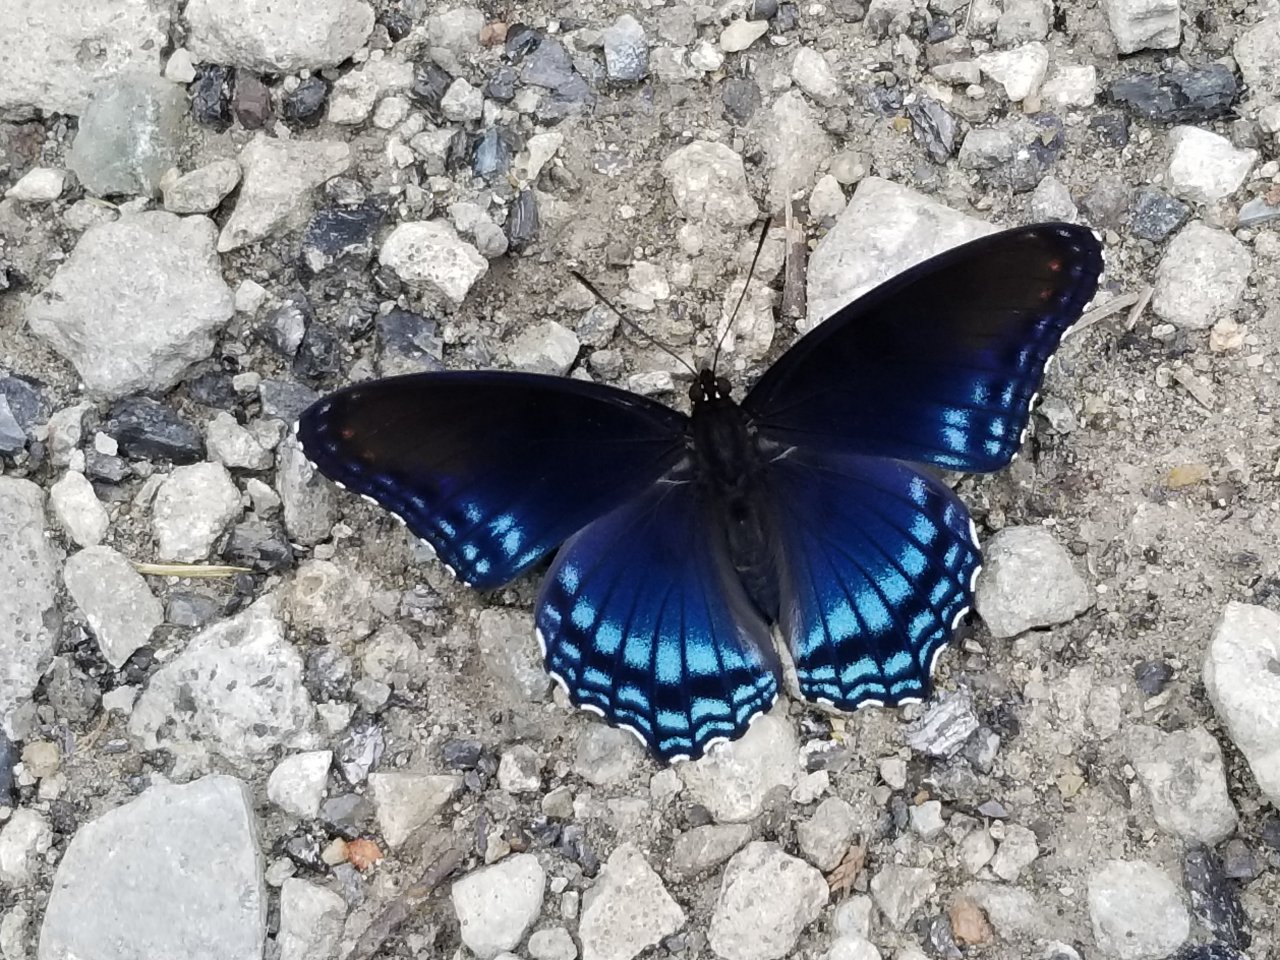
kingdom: Animalia
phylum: Arthropoda
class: Insecta
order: Lepidoptera
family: Nymphalidae
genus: Limenitis
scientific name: Limenitis arthemis
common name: Red-spotted Admiral
